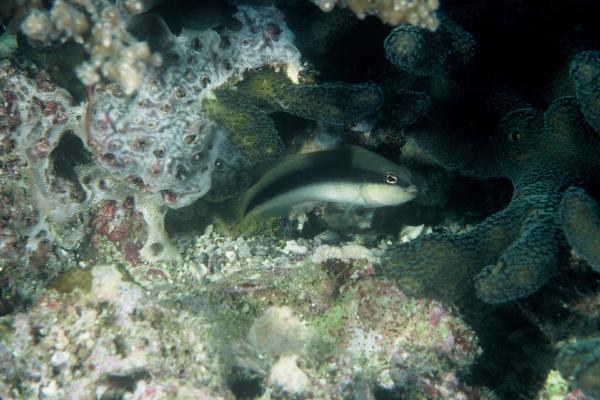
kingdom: Animalia
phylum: Chordata
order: Perciformes
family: Pseudochromidae
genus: Pseudochromis
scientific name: Pseudochromis nigrovittatus
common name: Blackstripe dottyback
